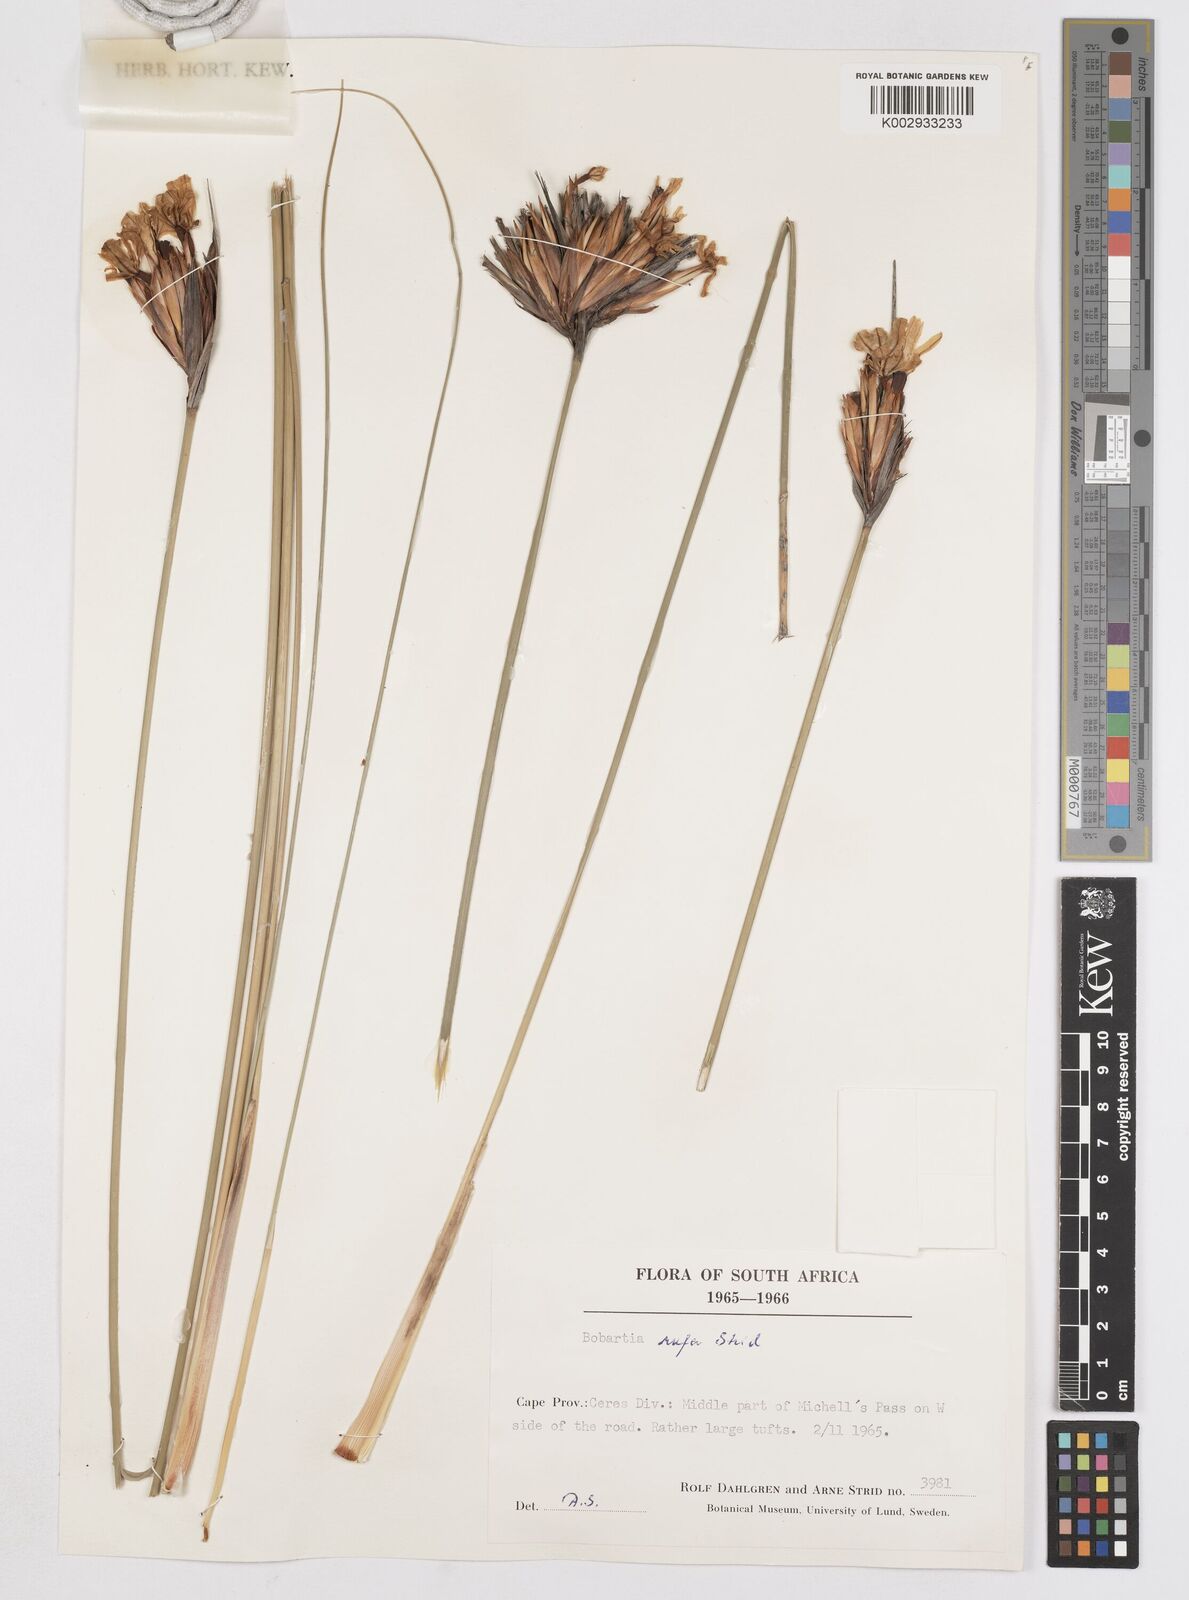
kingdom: Plantae
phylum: Tracheophyta
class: Liliopsida
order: Asparagales
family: Iridaceae
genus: Bobartia
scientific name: Bobartia rufa
